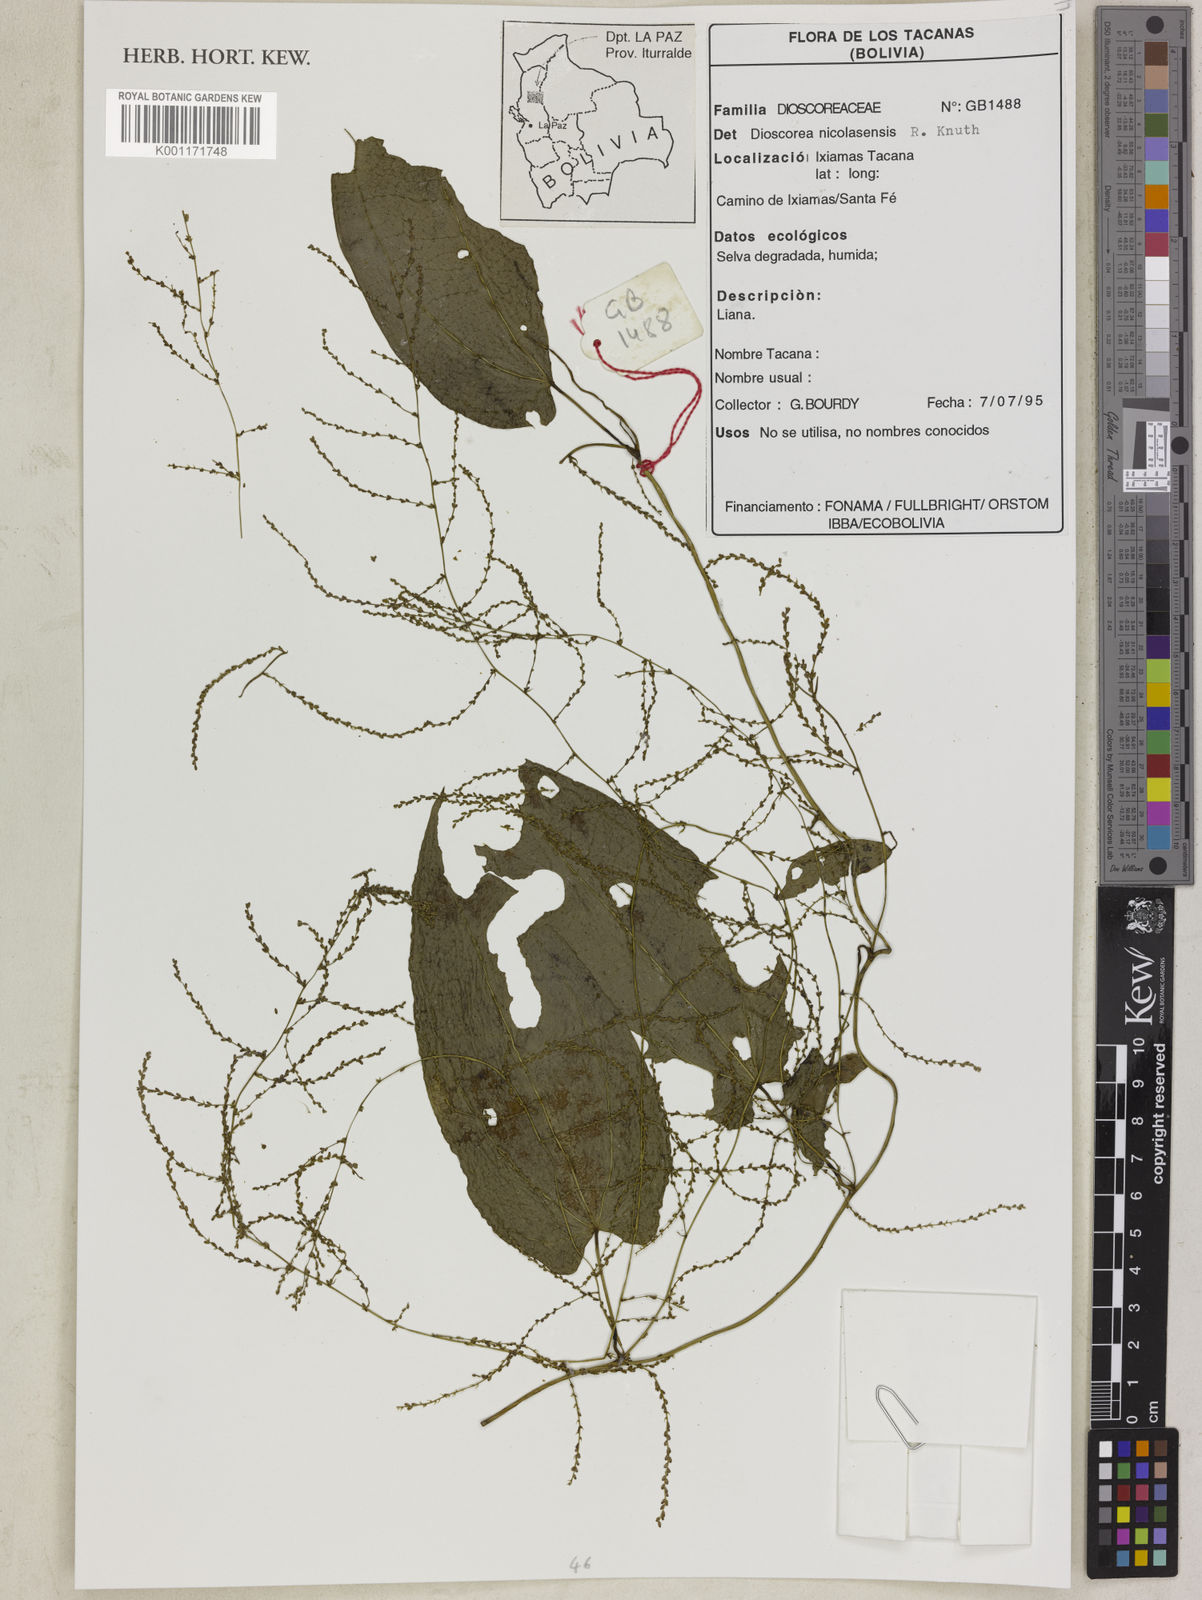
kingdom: Plantae
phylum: Tracheophyta
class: Liliopsida
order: Dioscoreales
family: Dioscoreaceae
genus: Dioscorea
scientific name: Dioscorea nicolasensis
